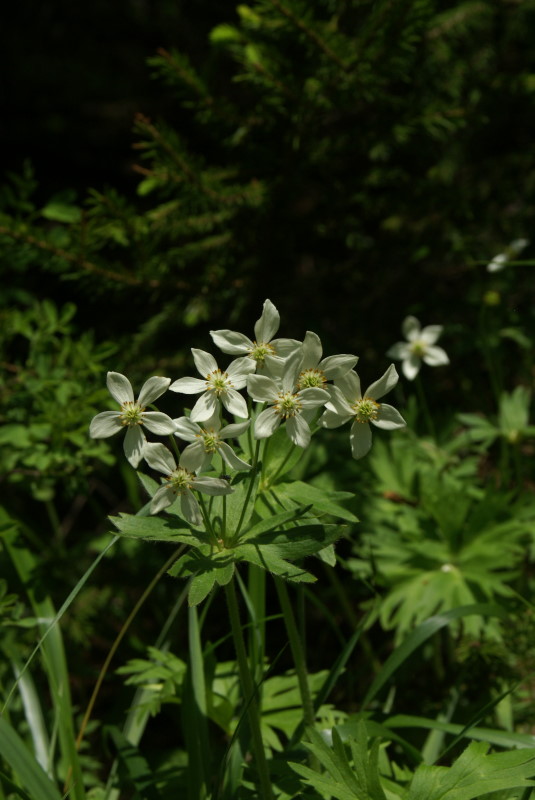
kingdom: Plantae
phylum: Tracheophyta
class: Magnoliopsida
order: Ranunculales
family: Ranunculaceae
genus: Anemonastrum
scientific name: Anemonastrum biarmiense
